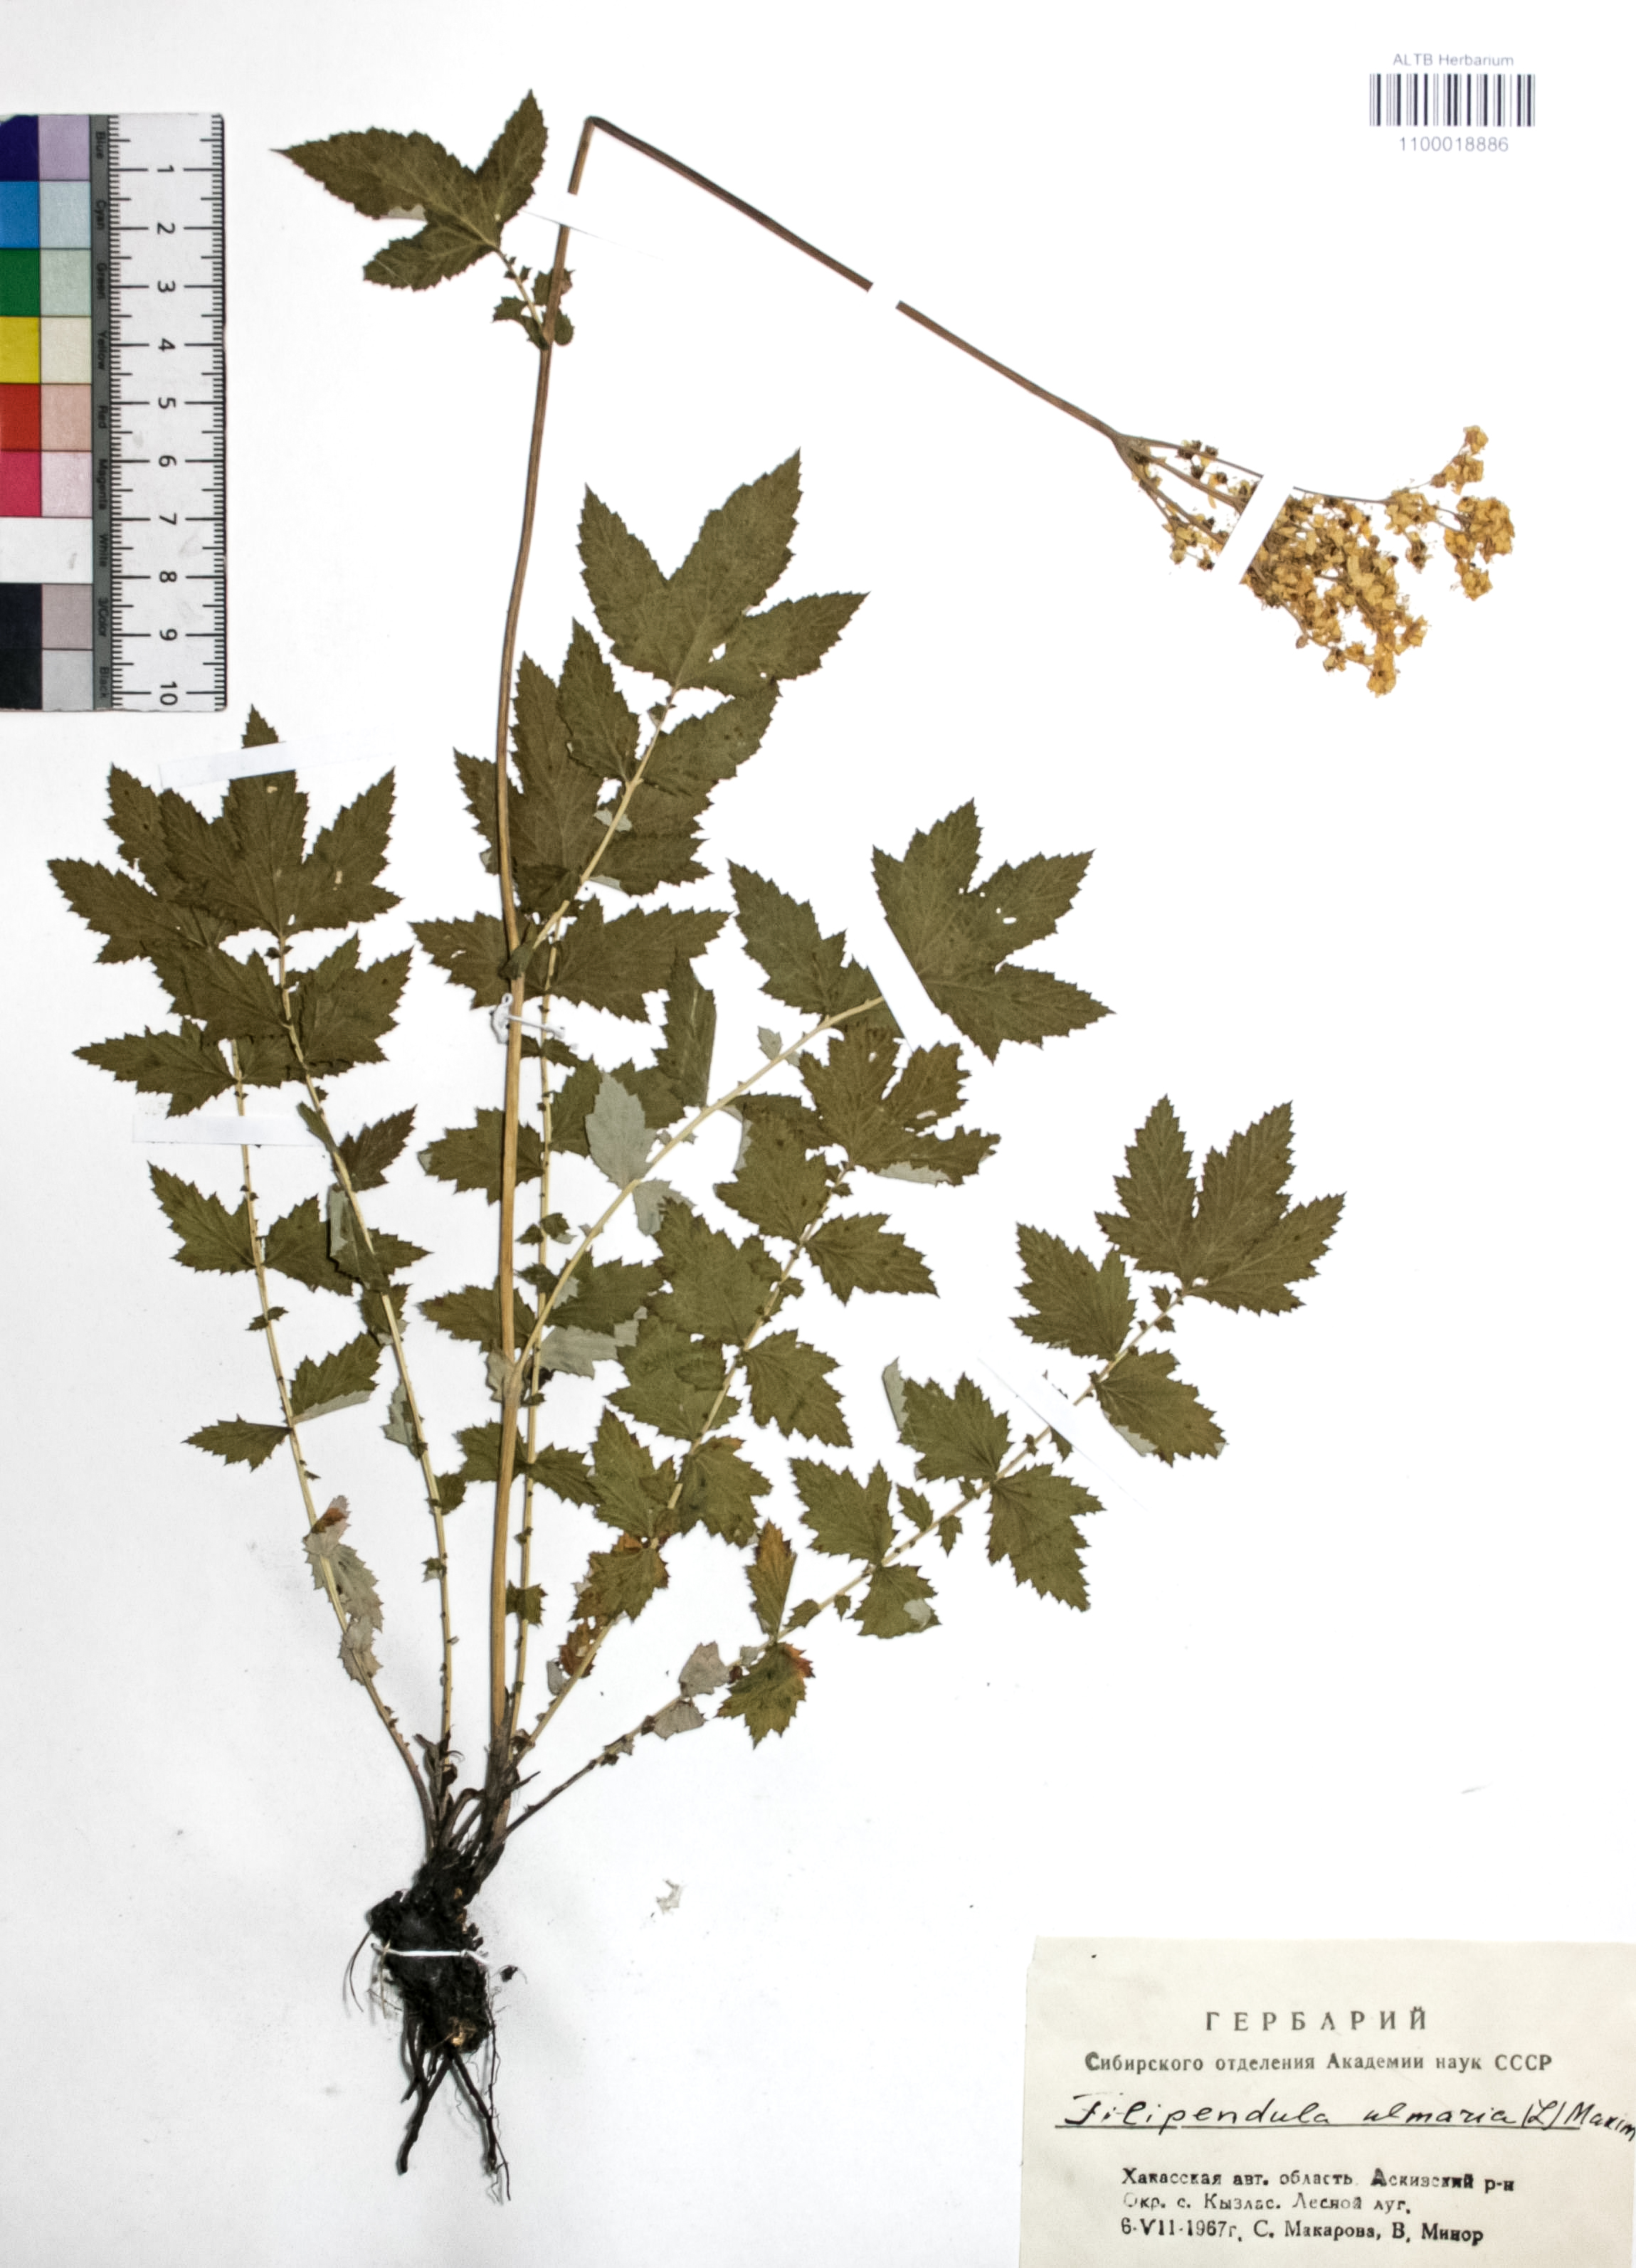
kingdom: Plantae
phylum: Tracheophyta
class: Magnoliopsida
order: Rosales
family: Rosaceae
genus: Filipendula
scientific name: Filipendula ulmaria
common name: Meadowsweet
